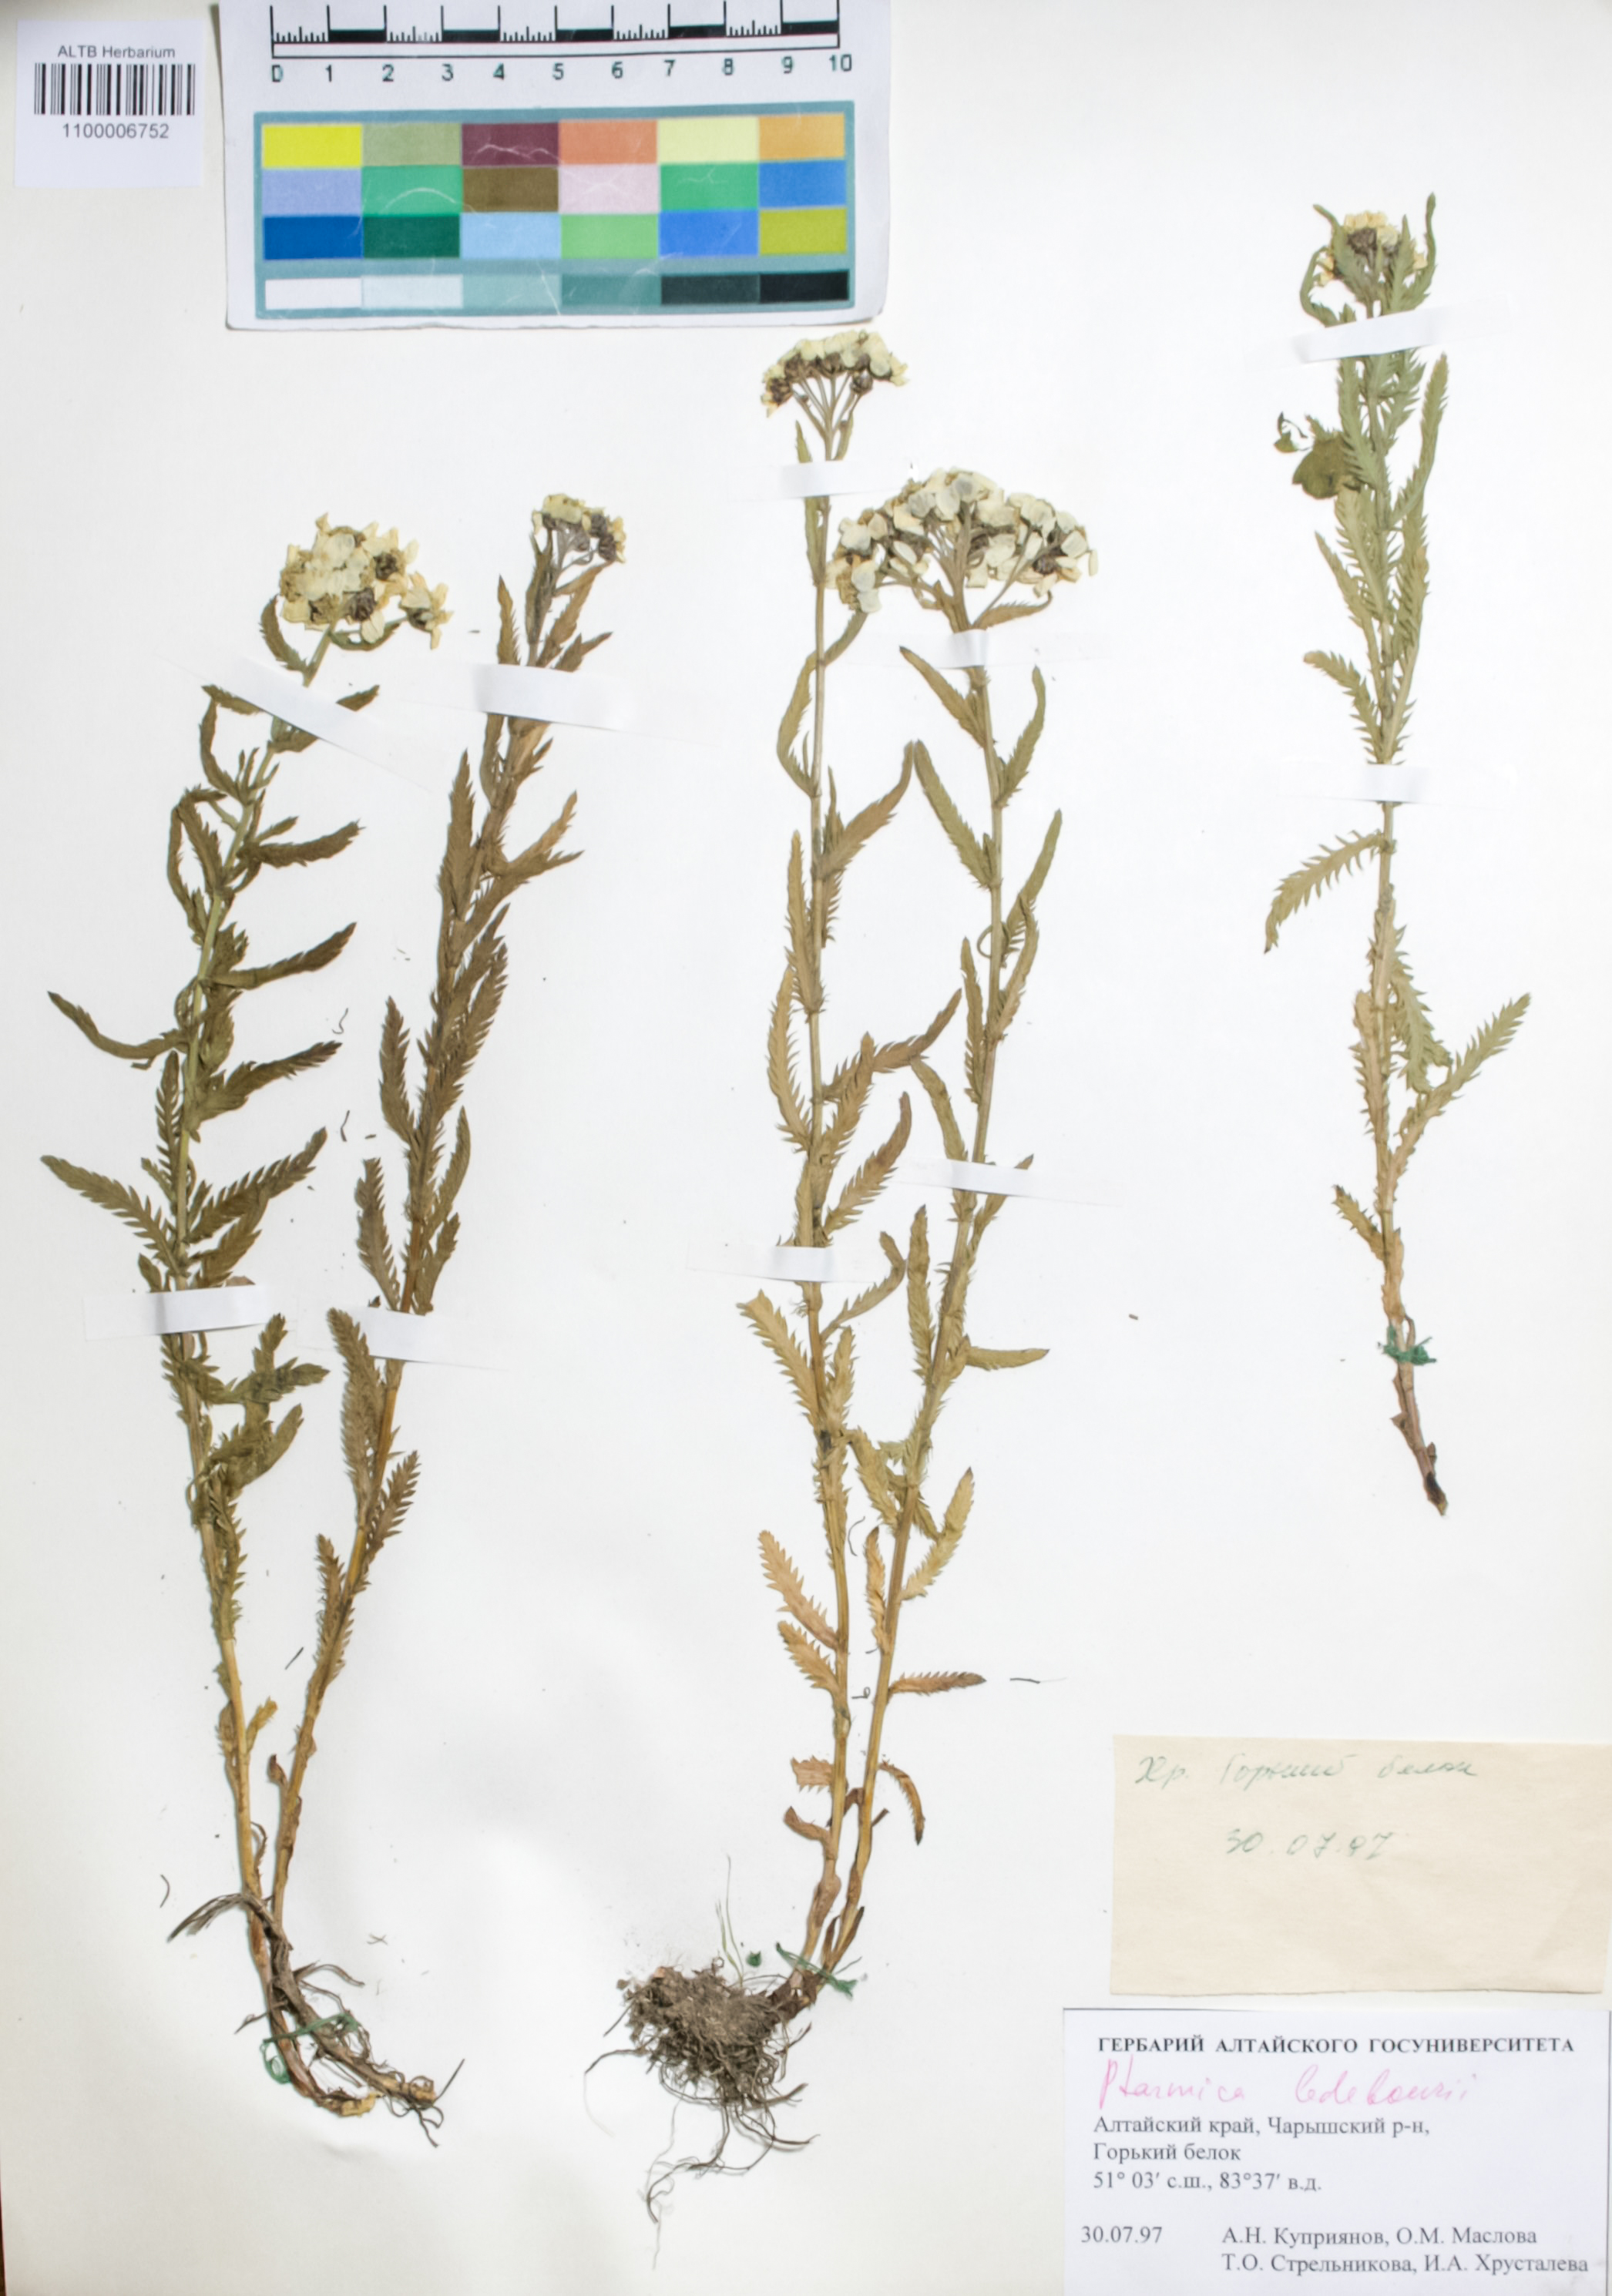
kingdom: Plantae
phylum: Tracheophyta
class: Magnoliopsida
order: Asterales
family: Asteraceae
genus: Achillea
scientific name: Achillea ledebourii
